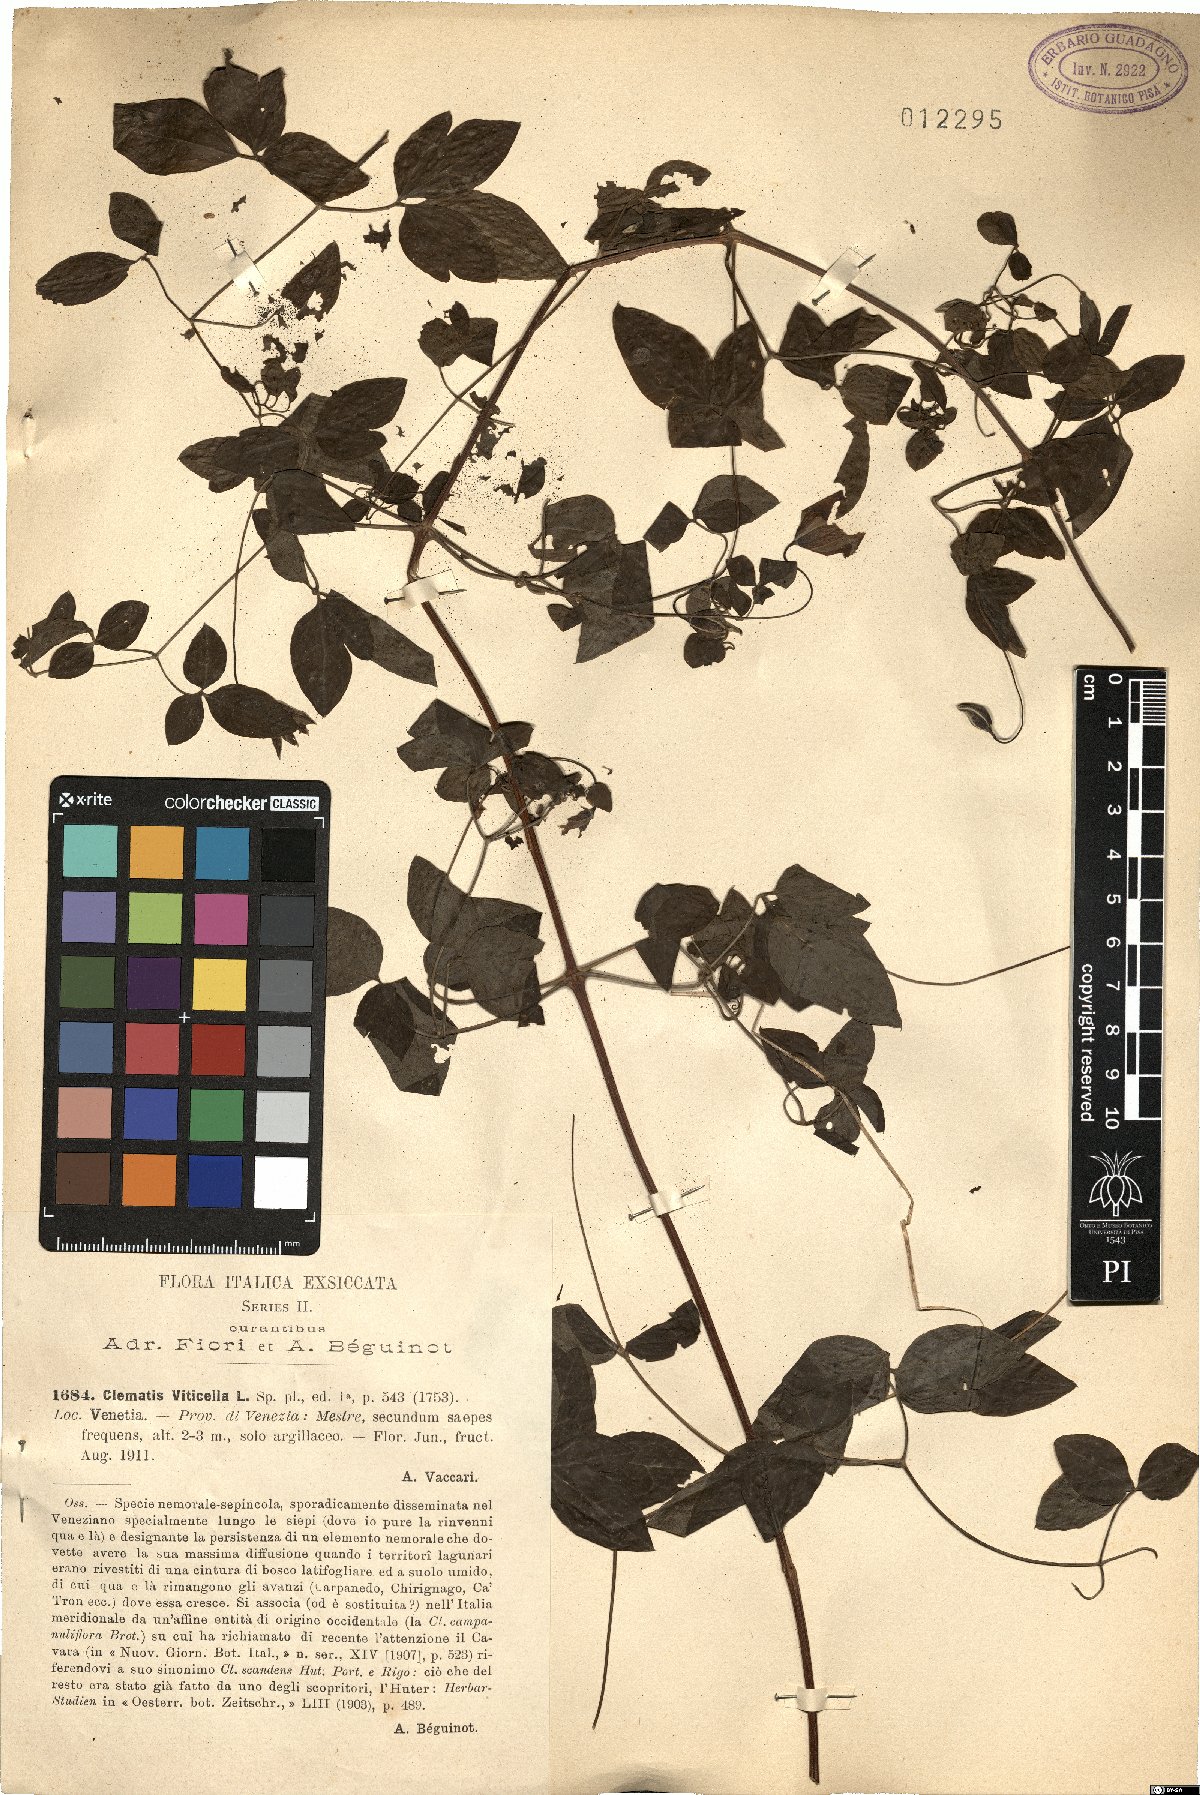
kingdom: Plantae
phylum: Tracheophyta
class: Magnoliopsida
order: Ranunculales
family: Ranunculaceae
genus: Clematis
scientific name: Clematis viticella
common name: Purple clematis
